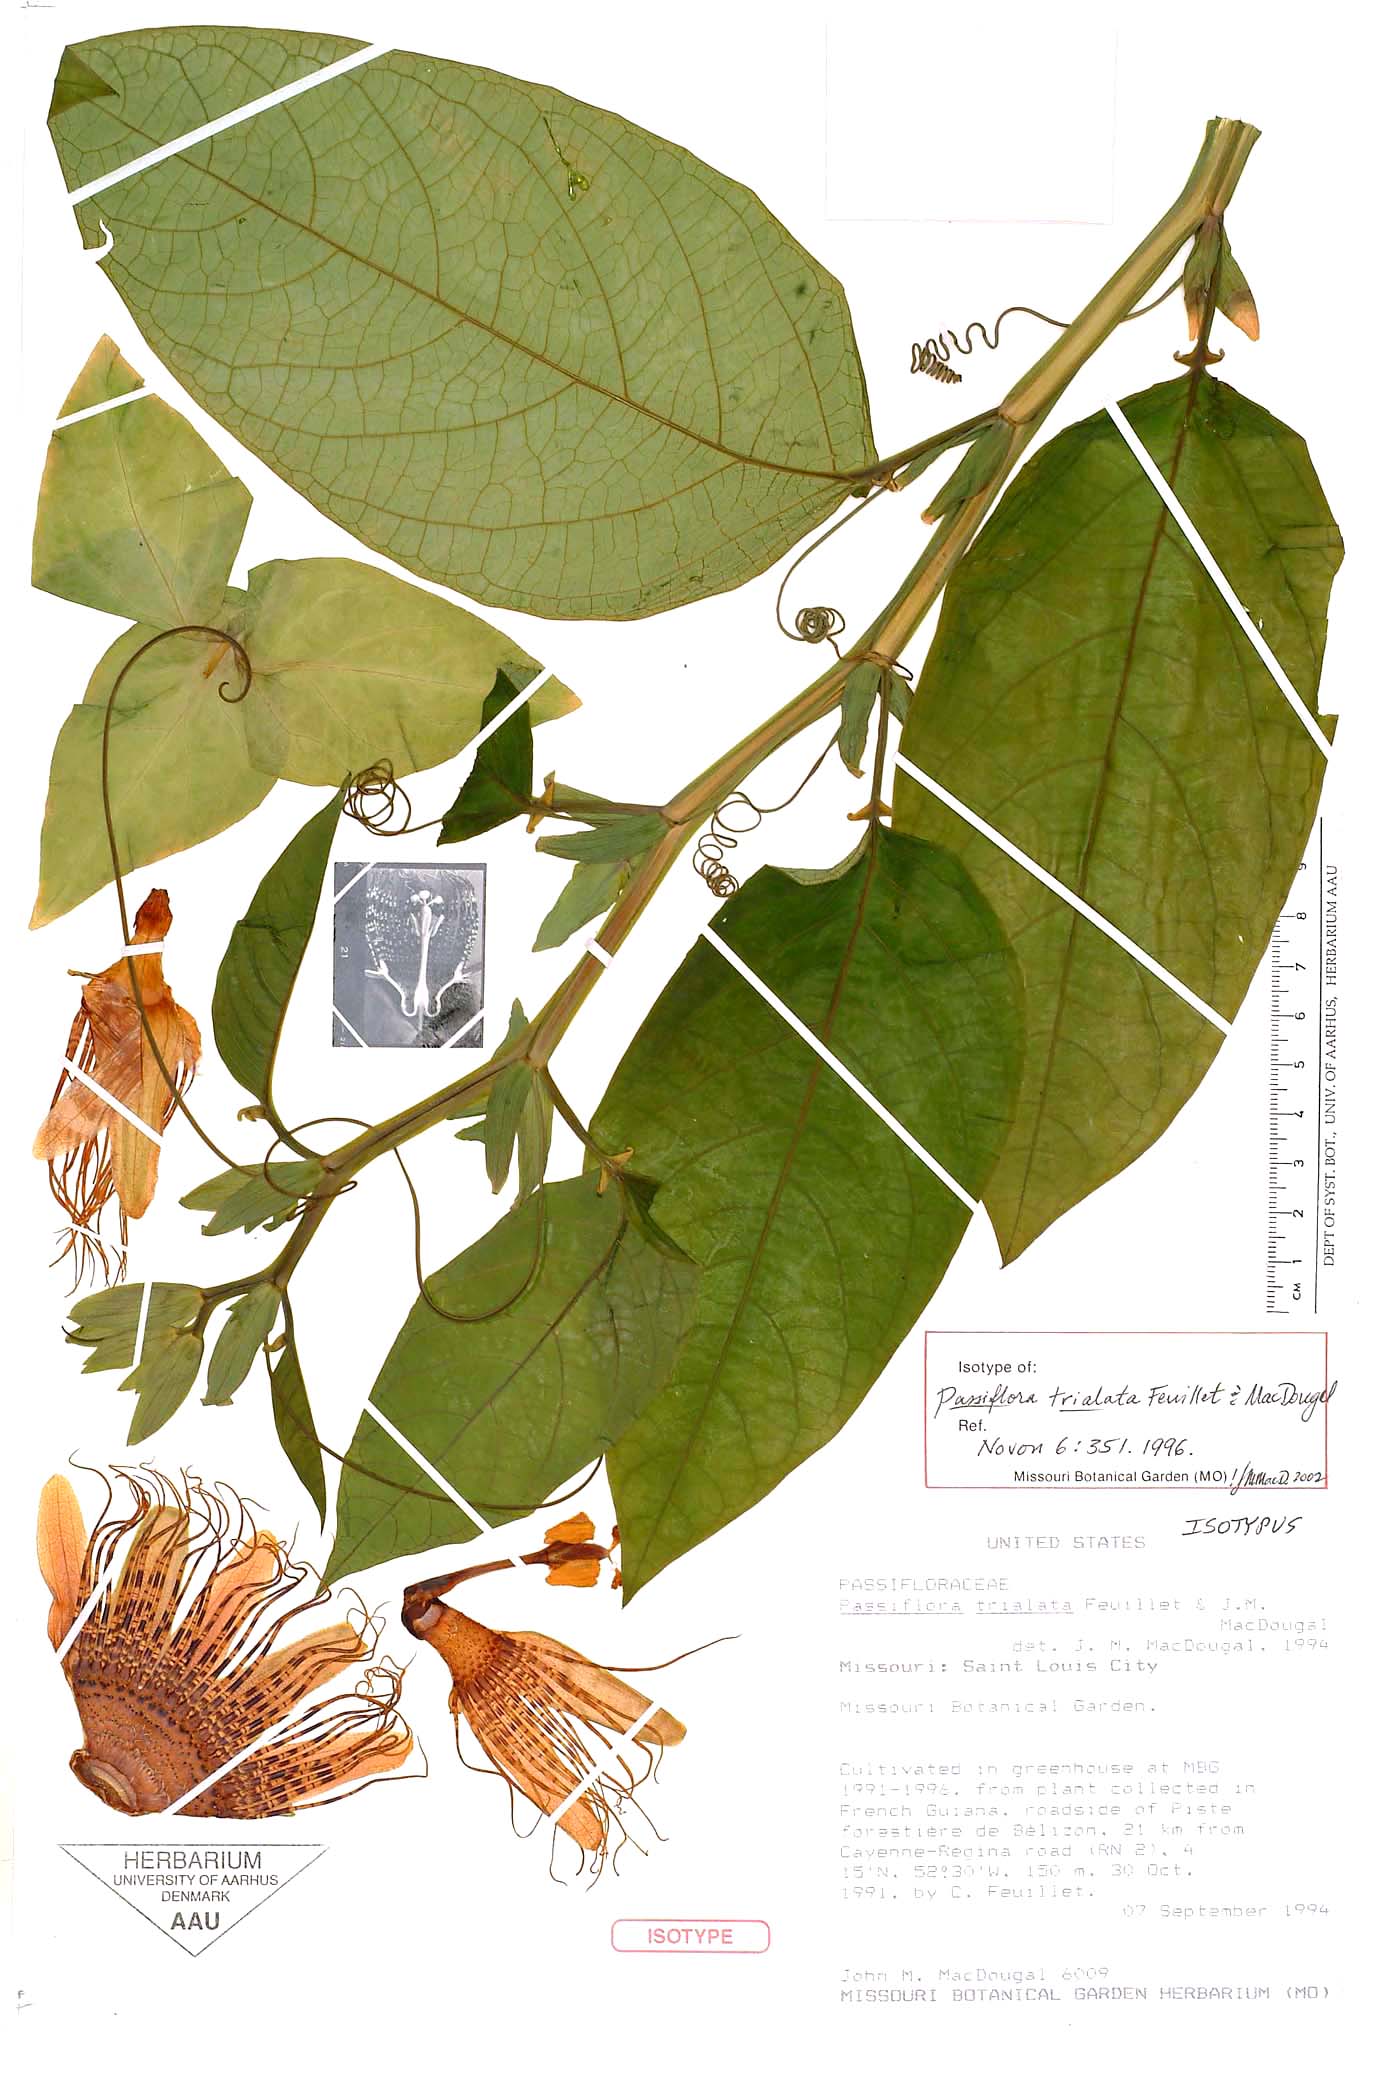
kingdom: Plantae
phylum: Tracheophyta
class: Magnoliopsida
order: Malpighiales
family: Passifloraceae
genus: Passiflora
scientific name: Passiflora trialata
